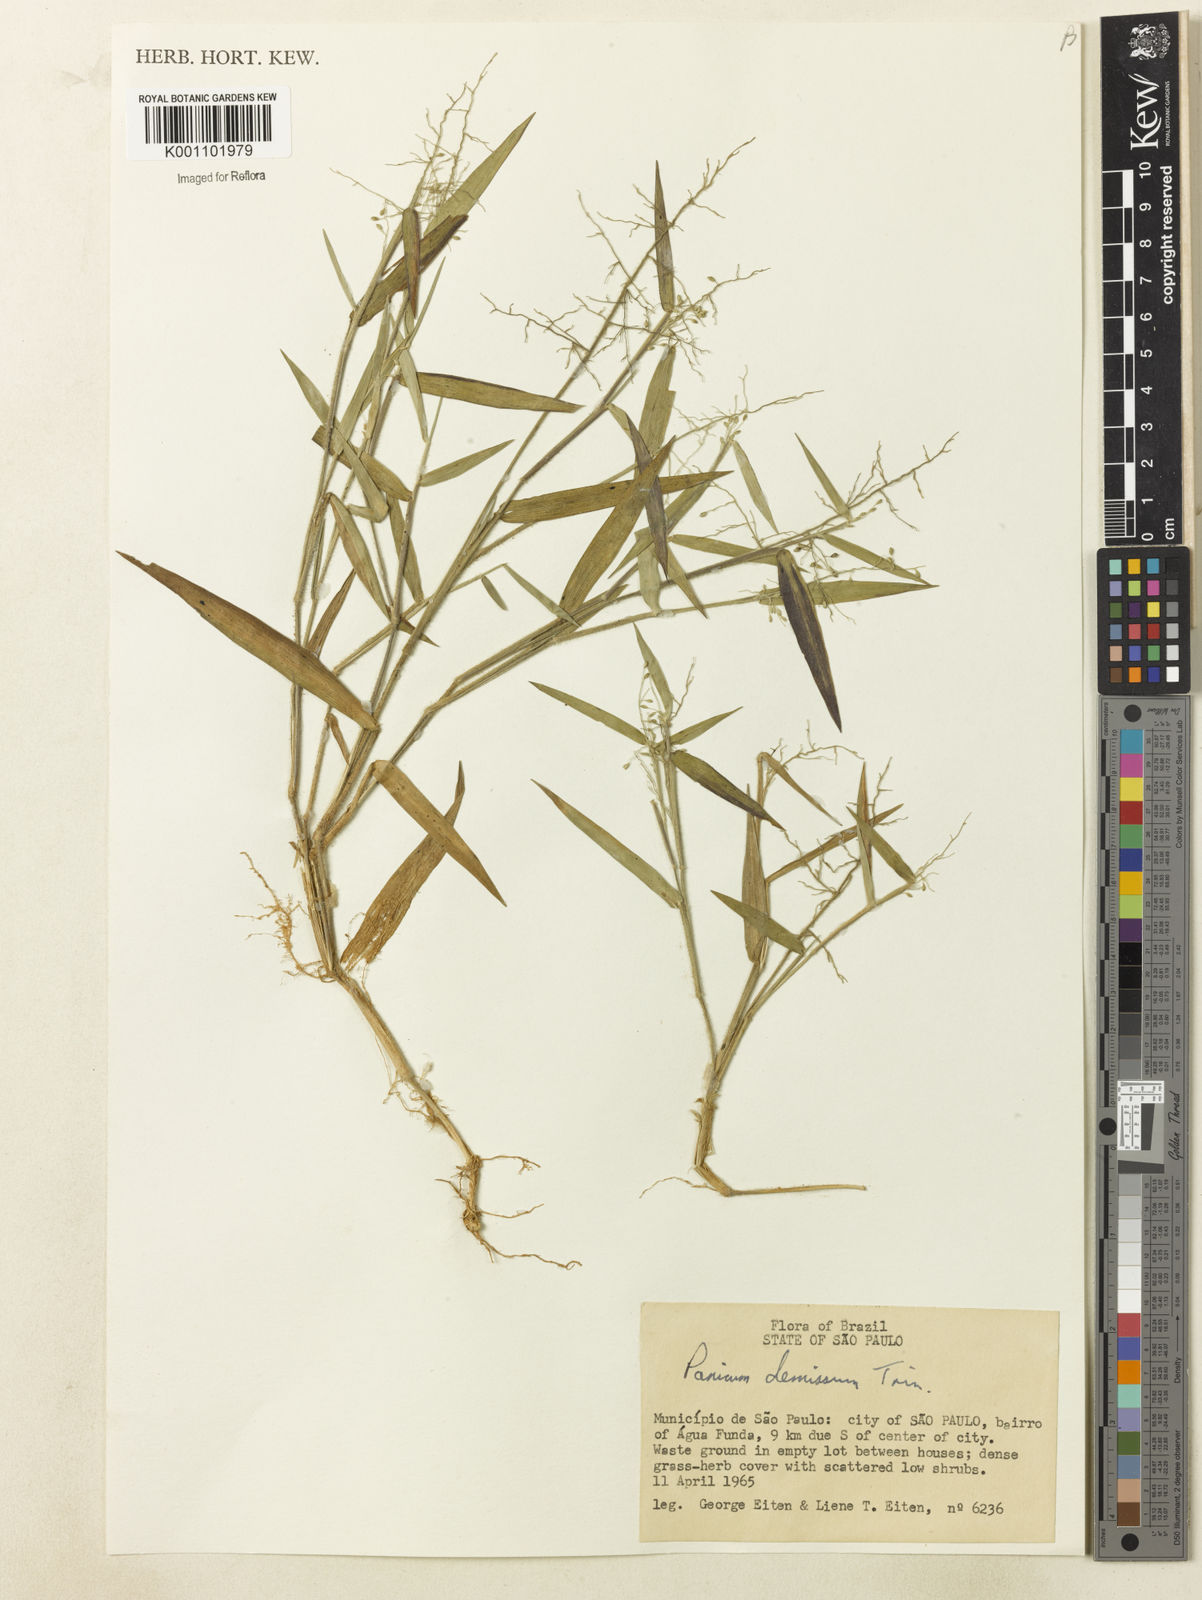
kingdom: Plantae
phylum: Tracheophyta
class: Liliopsida
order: Poales
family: Poaceae
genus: Dichanthelium
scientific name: Dichanthelium sabulorum
